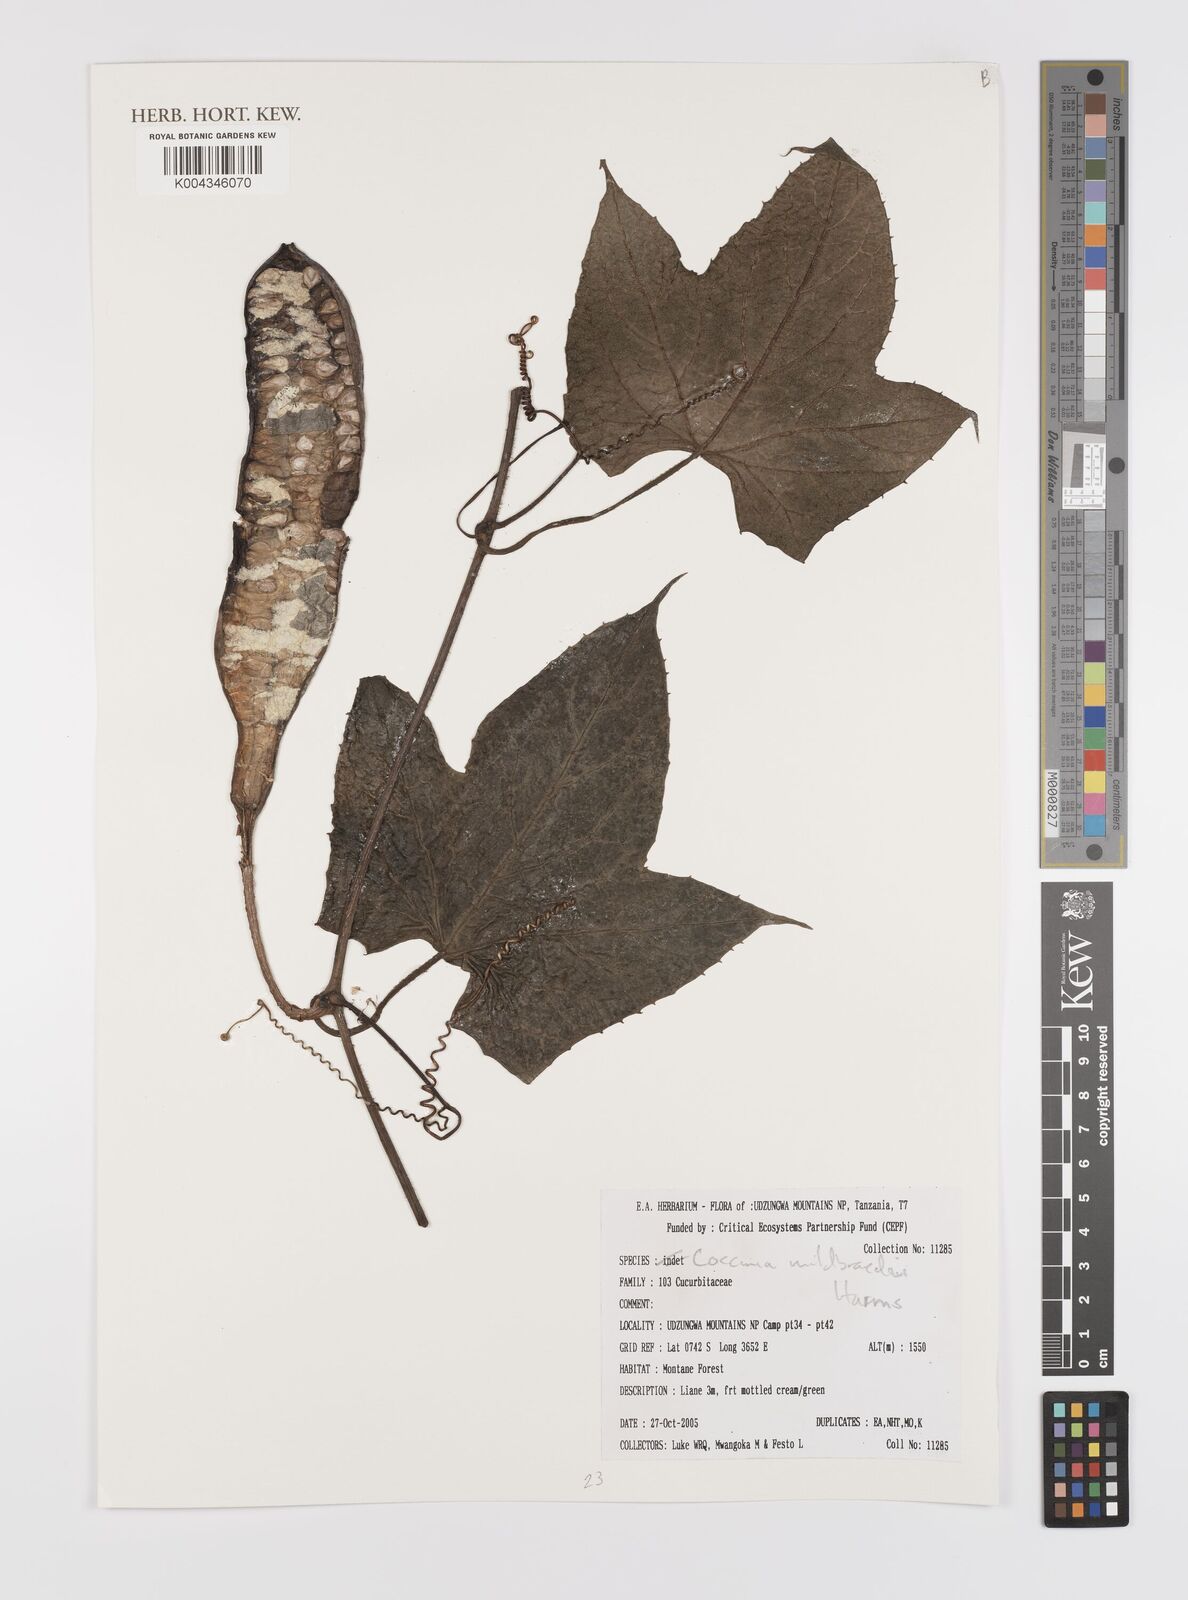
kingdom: Plantae
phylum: Tracheophyta
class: Magnoliopsida
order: Cucurbitales
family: Cucurbitaceae
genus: Coccinia
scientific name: Coccinia adoensis
